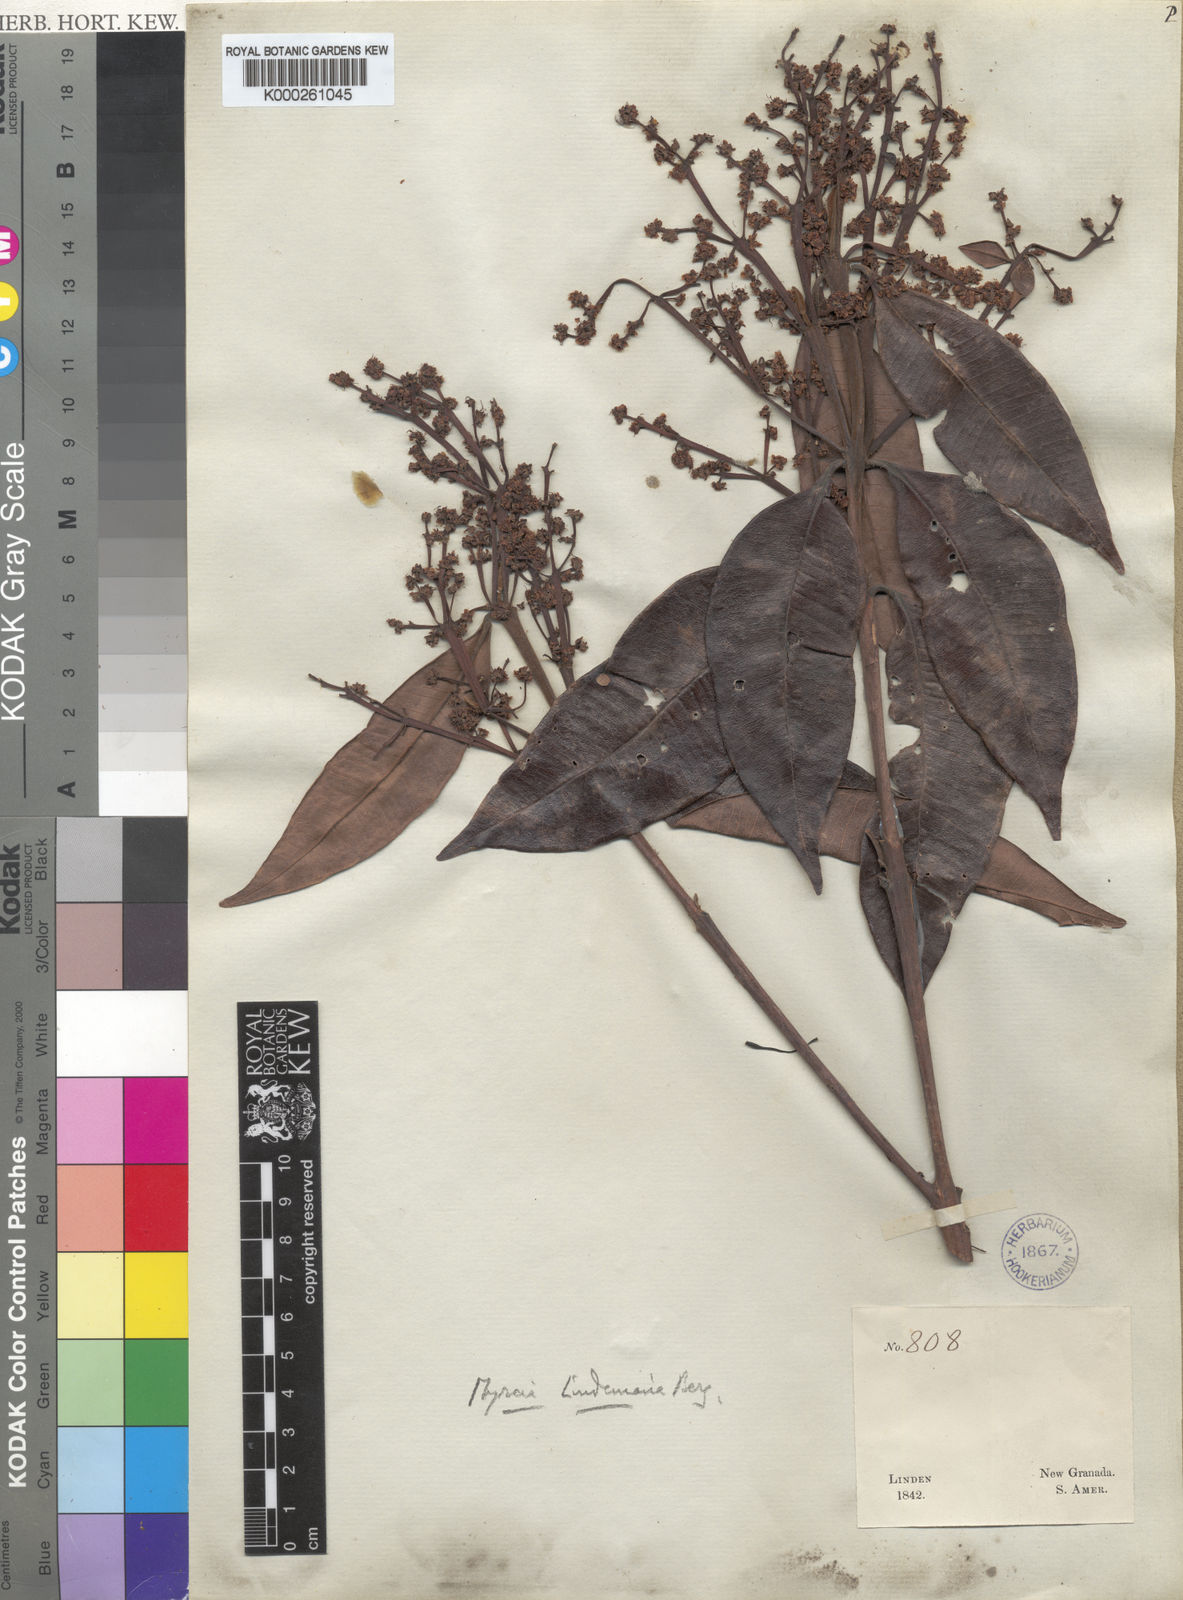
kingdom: Plantae
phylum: Tracheophyta
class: Magnoliopsida
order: Myrtales
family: Myrtaceae
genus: Myrcia
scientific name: Myrcia fenzliana
